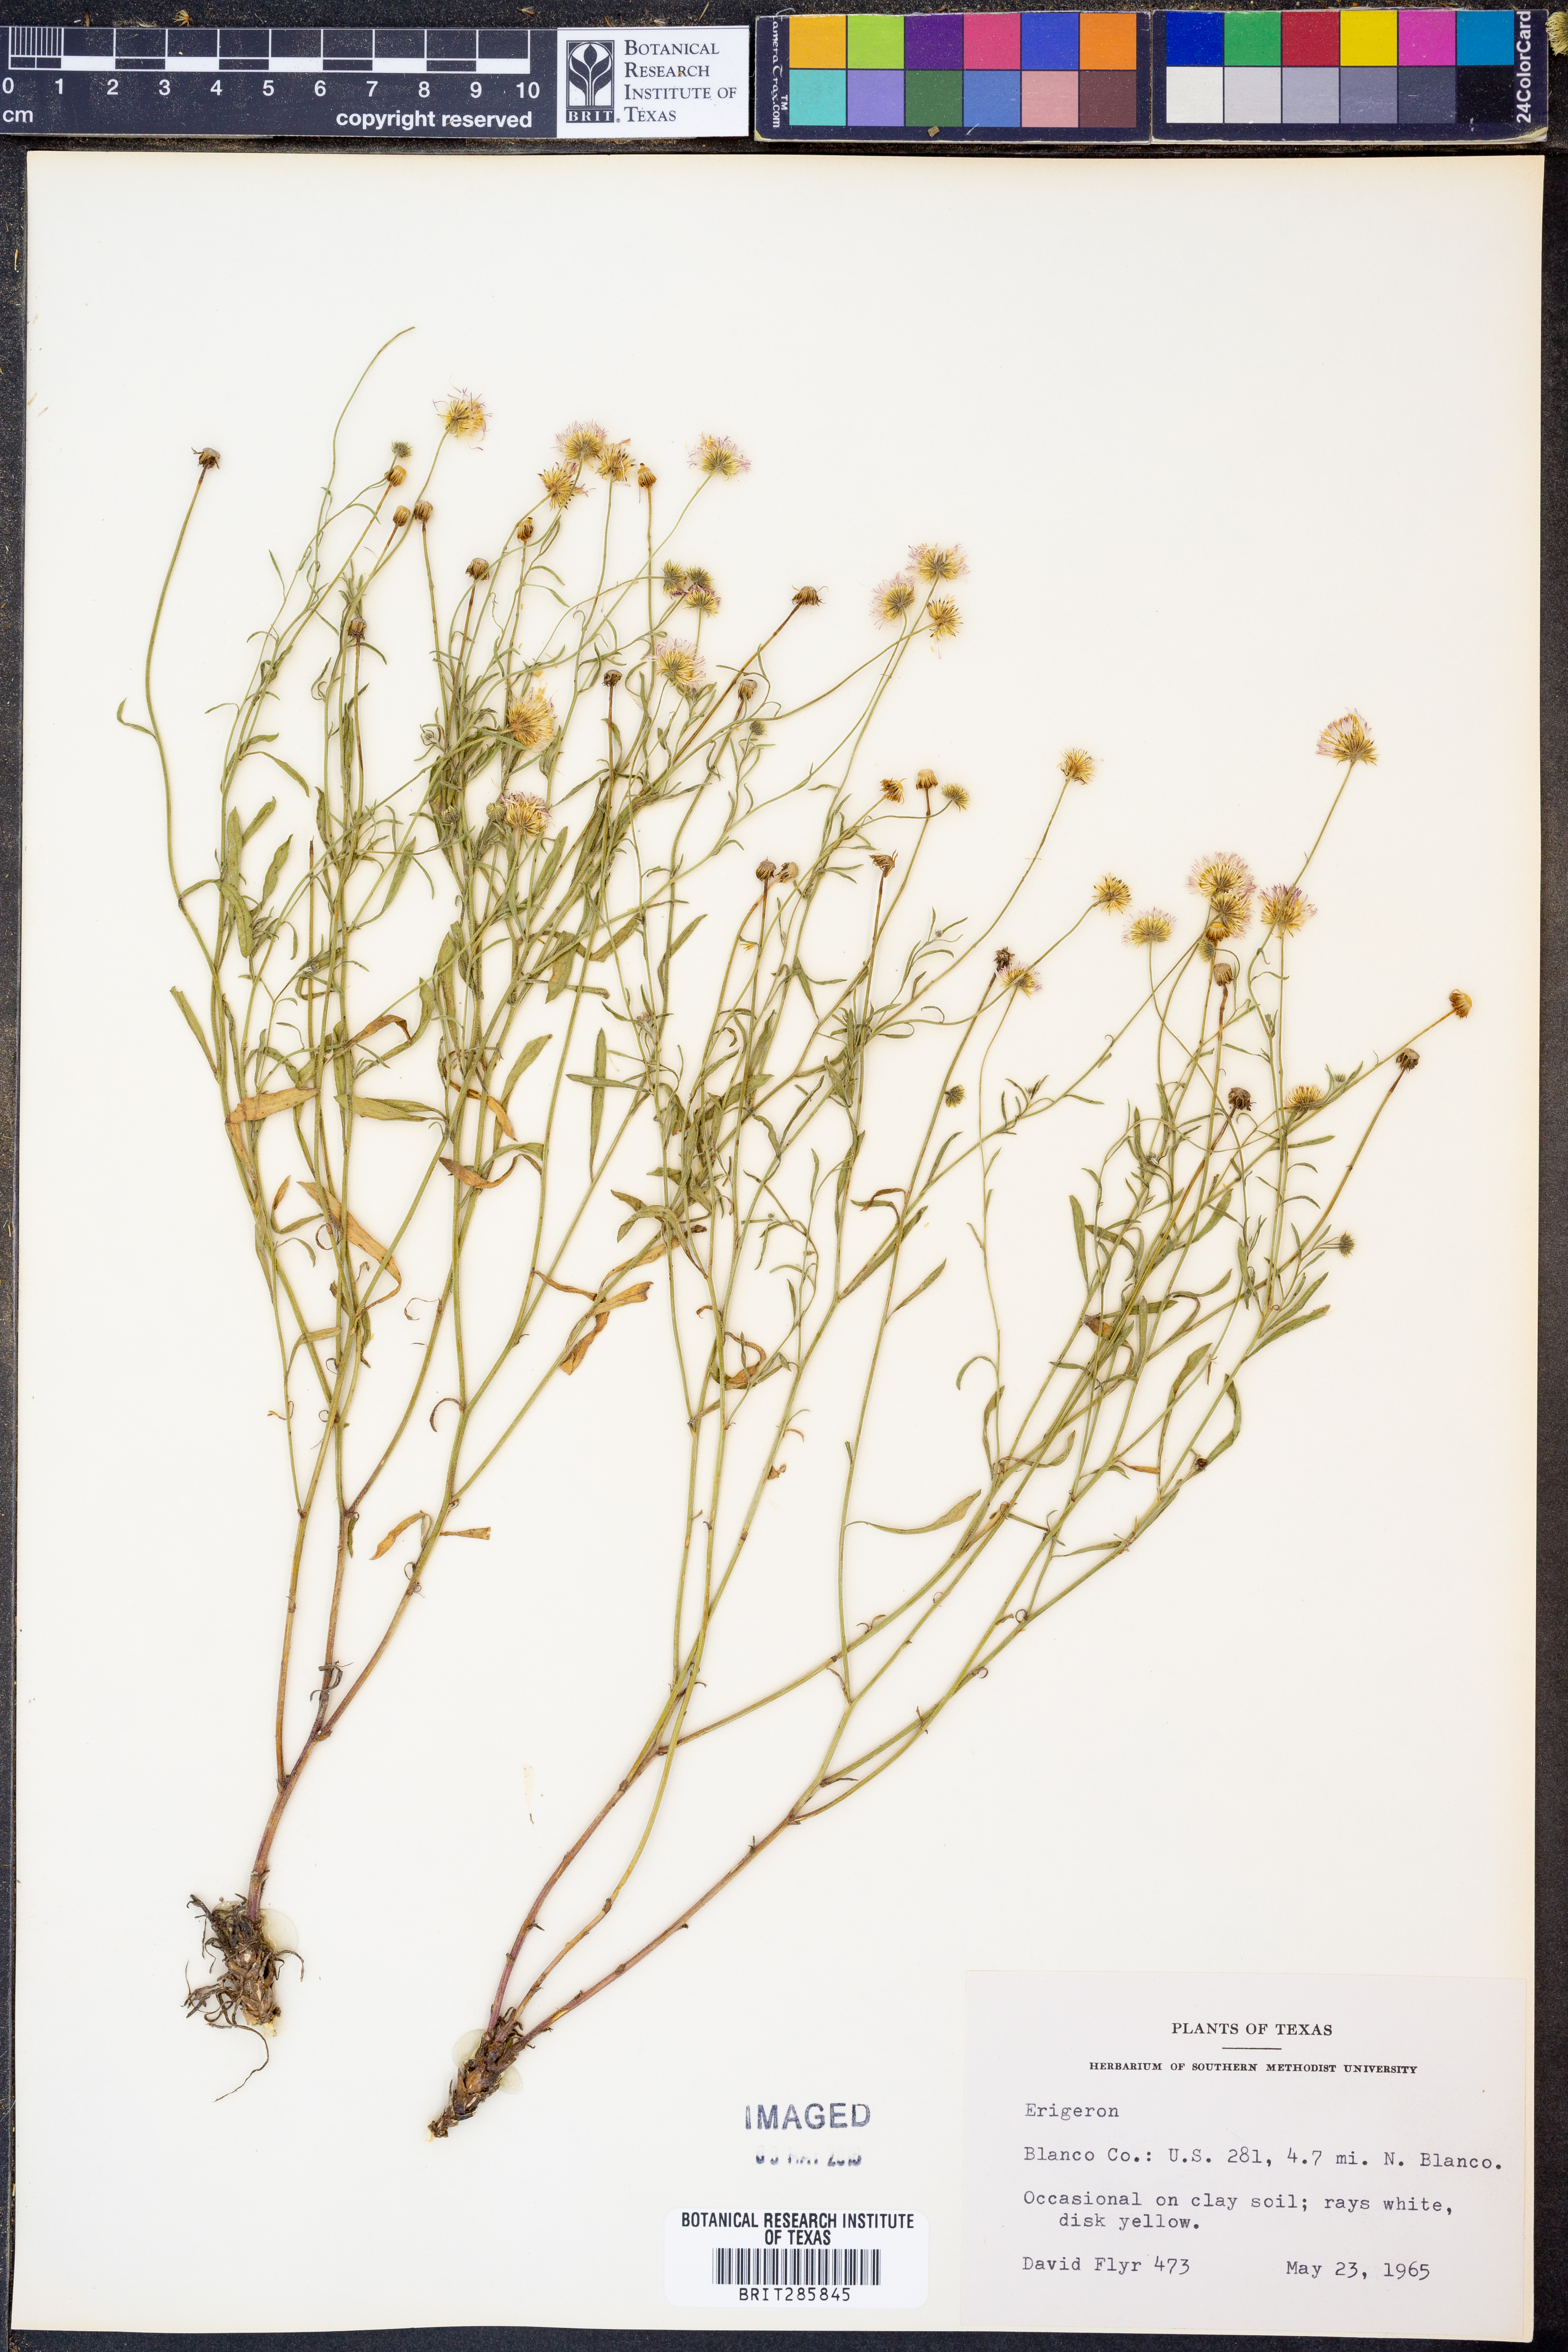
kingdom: Plantae
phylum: Tracheophyta
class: Magnoliopsida
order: Asterales
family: Asteraceae
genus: Erigeron
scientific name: Erigeron
